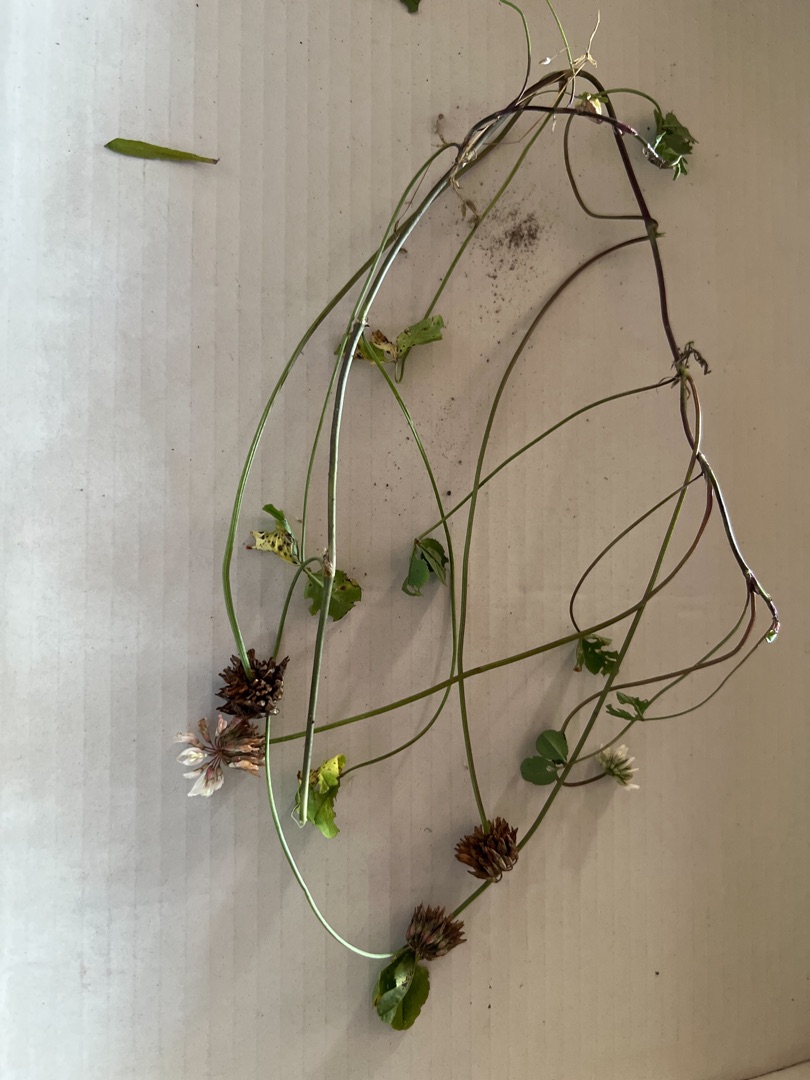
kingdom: Plantae
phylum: Tracheophyta
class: Magnoliopsida
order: Fabales
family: Fabaceae
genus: Trifolium
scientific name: Trifolium repens
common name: Hvid-kløver
